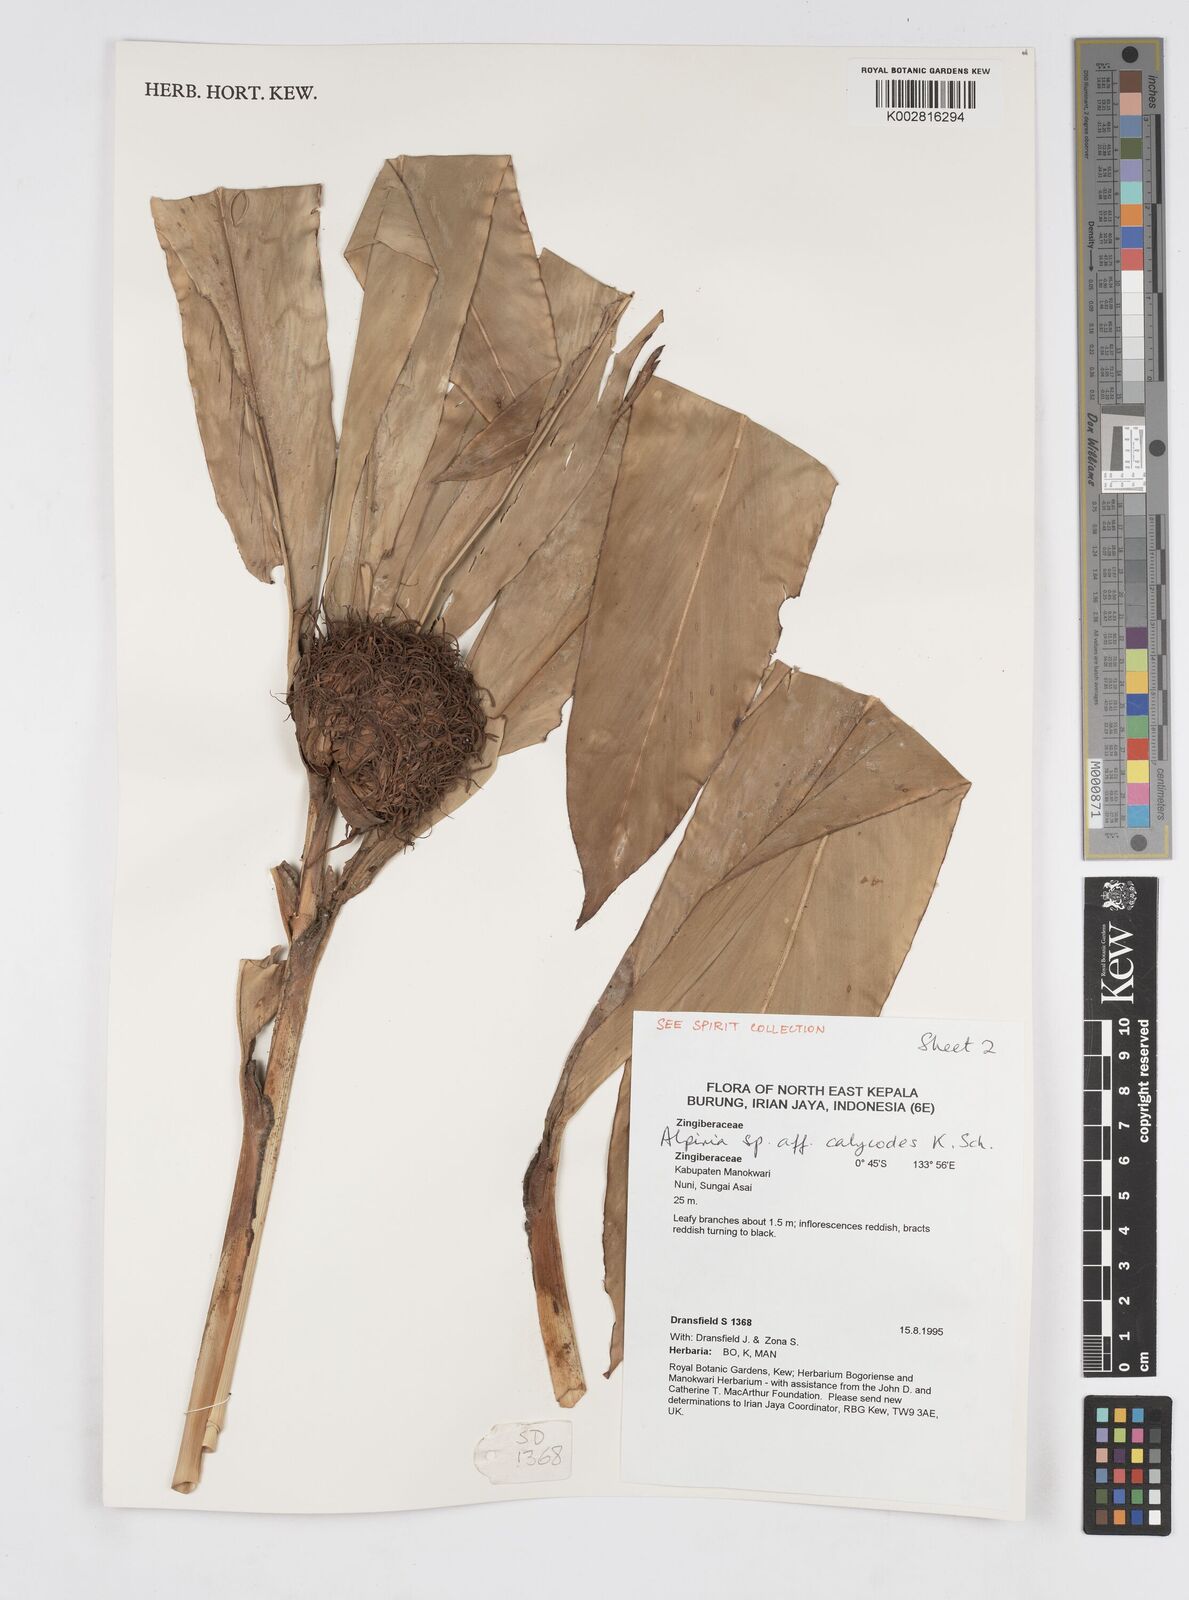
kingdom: Plantae
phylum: Tracheophyta
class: Liliopsida
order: Zingiberales
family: Zingiberaceae
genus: Alpinia
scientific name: Alpinia calycodes
